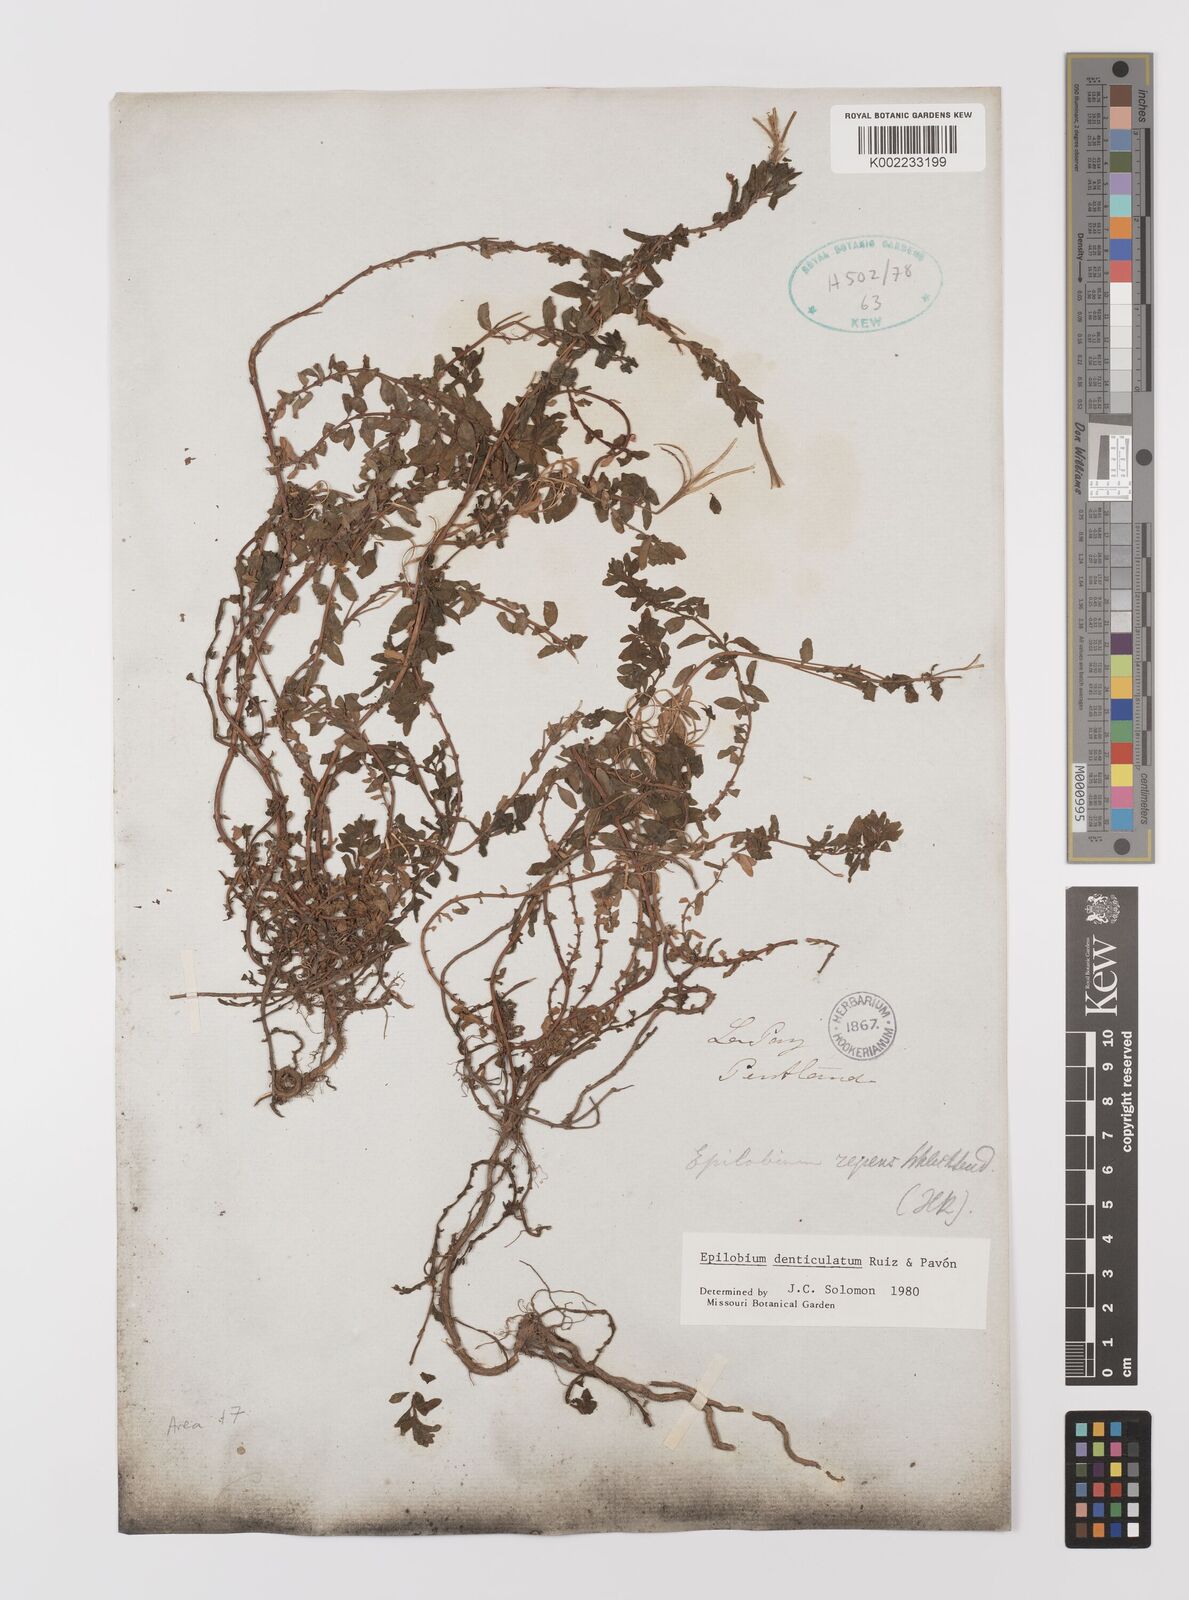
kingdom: Plantae
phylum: Tracheophyta
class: Magnoliopsida
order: Myrtales
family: Onagraceae
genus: Epilobium
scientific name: Epilobium denticulatum
